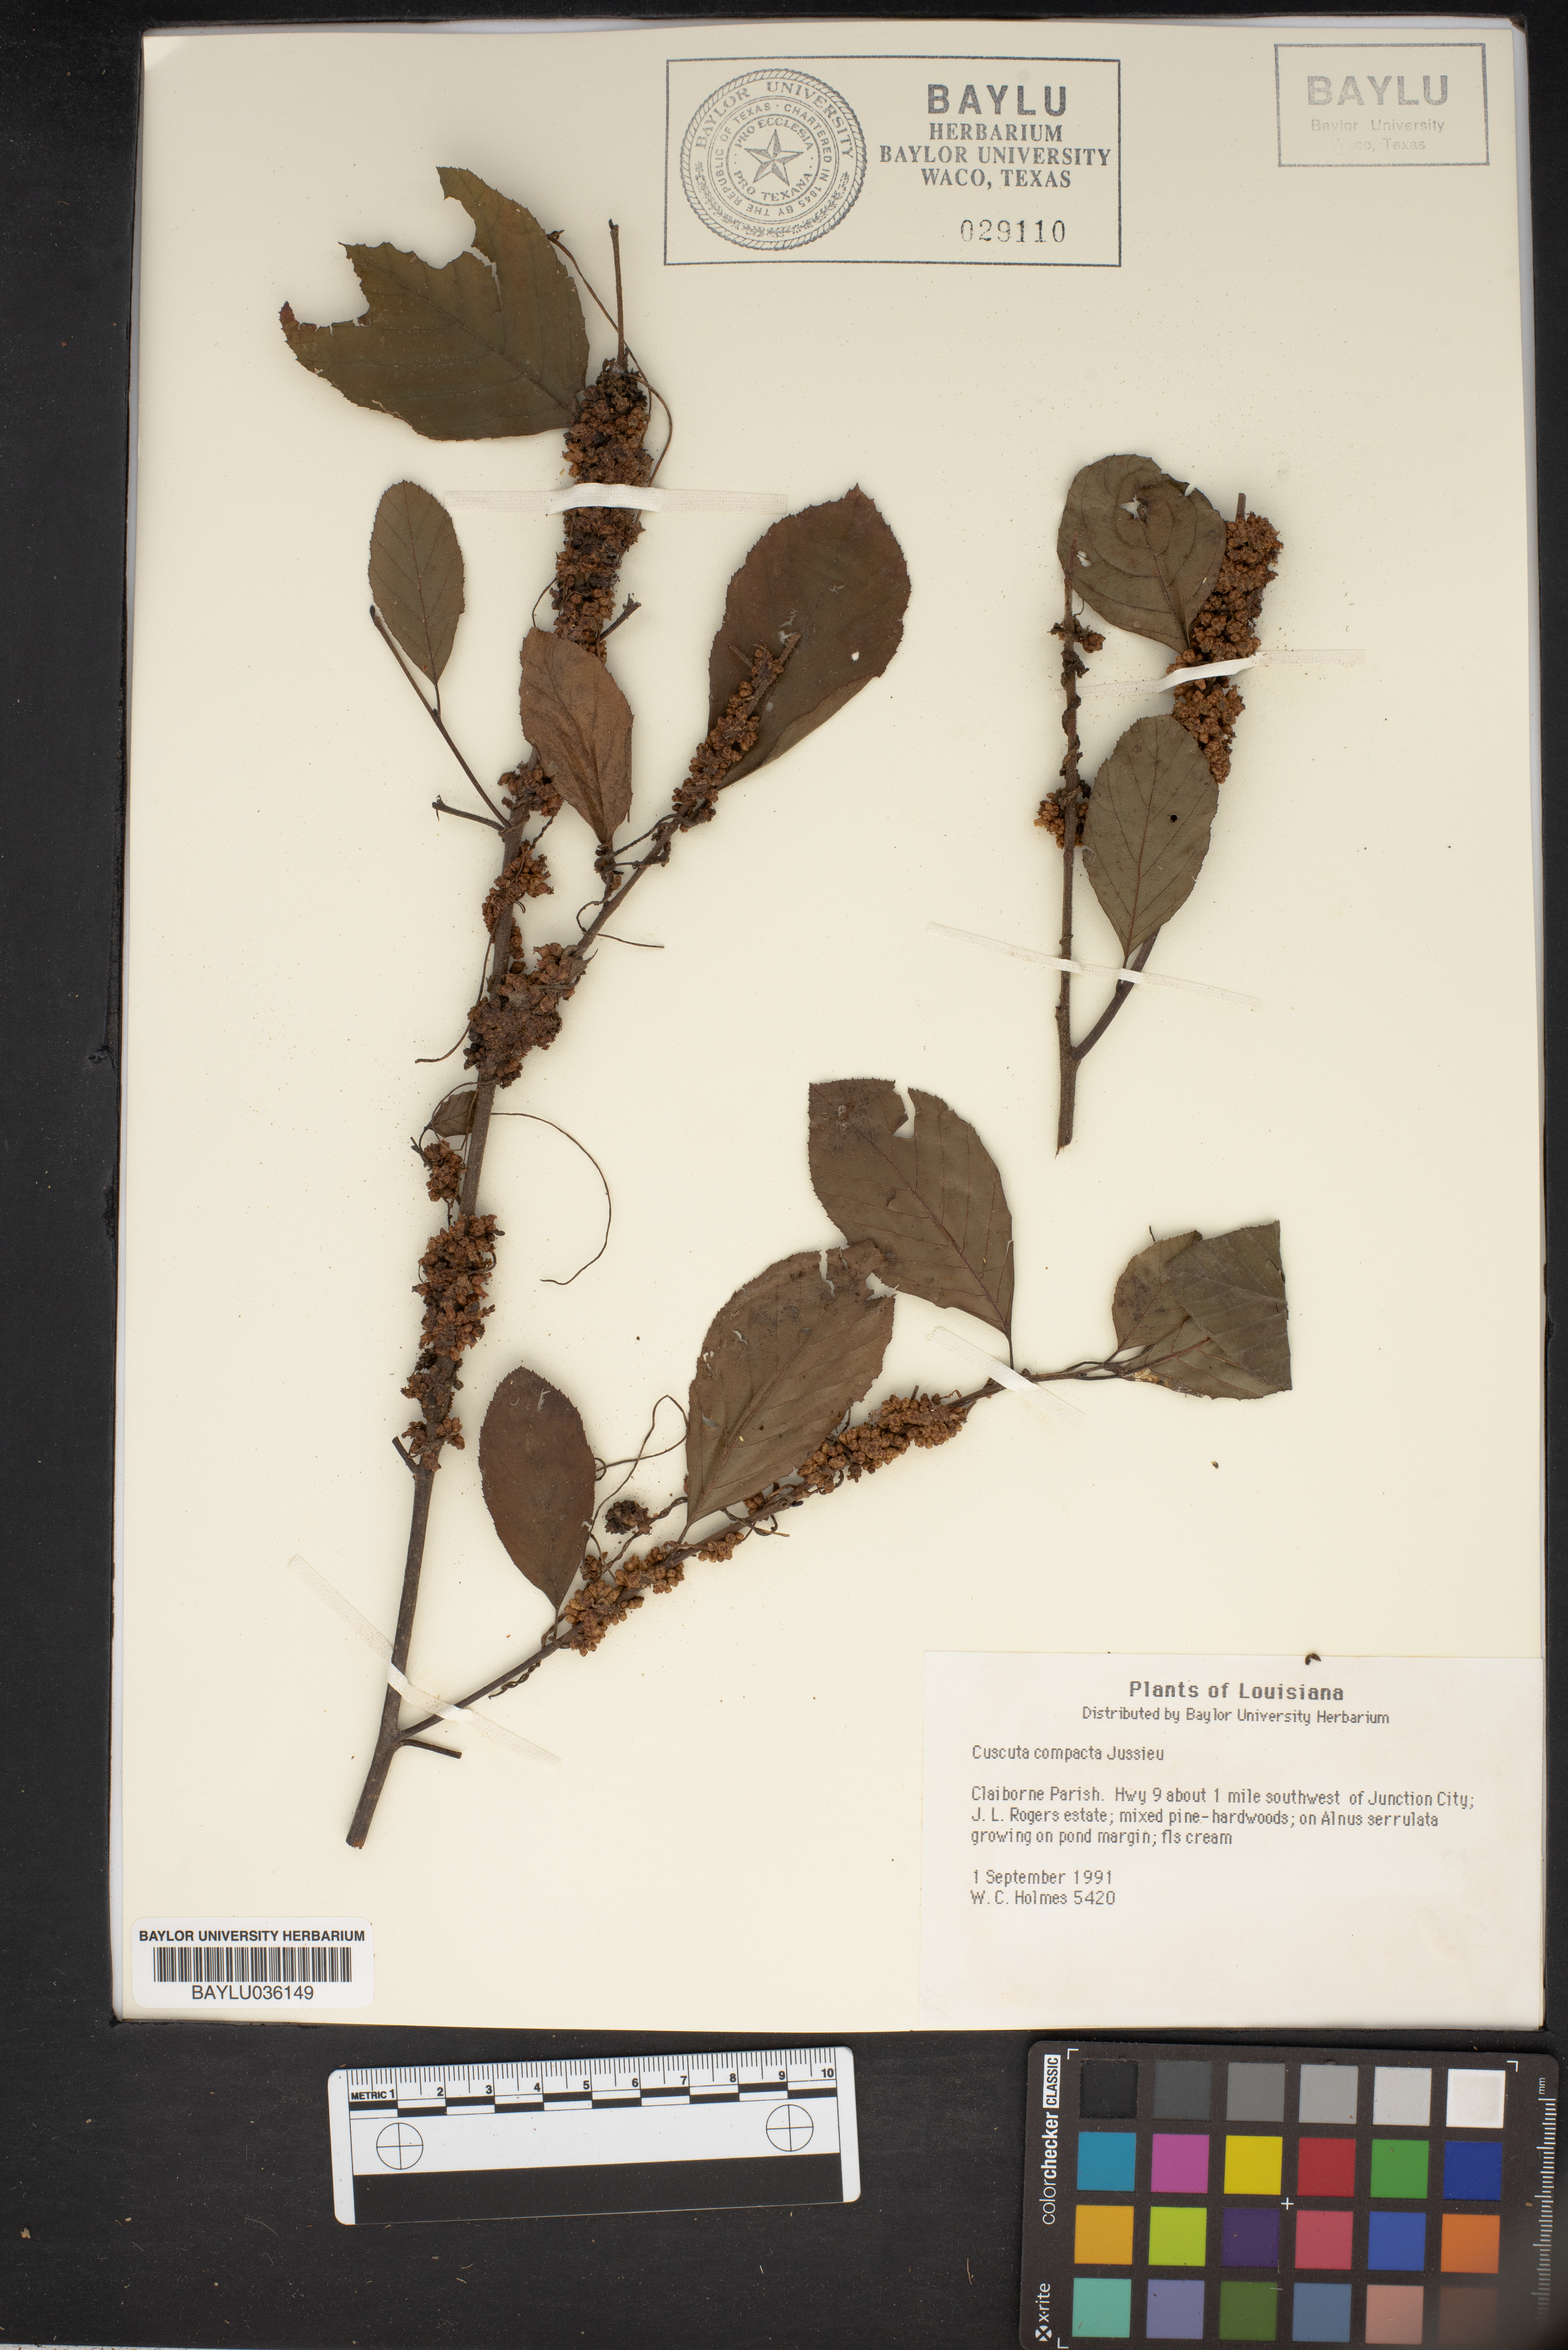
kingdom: Plantae
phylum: Tracheophyta
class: Magnoliopsida
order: Solanales
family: Convolvulaceae
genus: Cuscuta
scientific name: Cuscuta compacta
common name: Compact dodder
